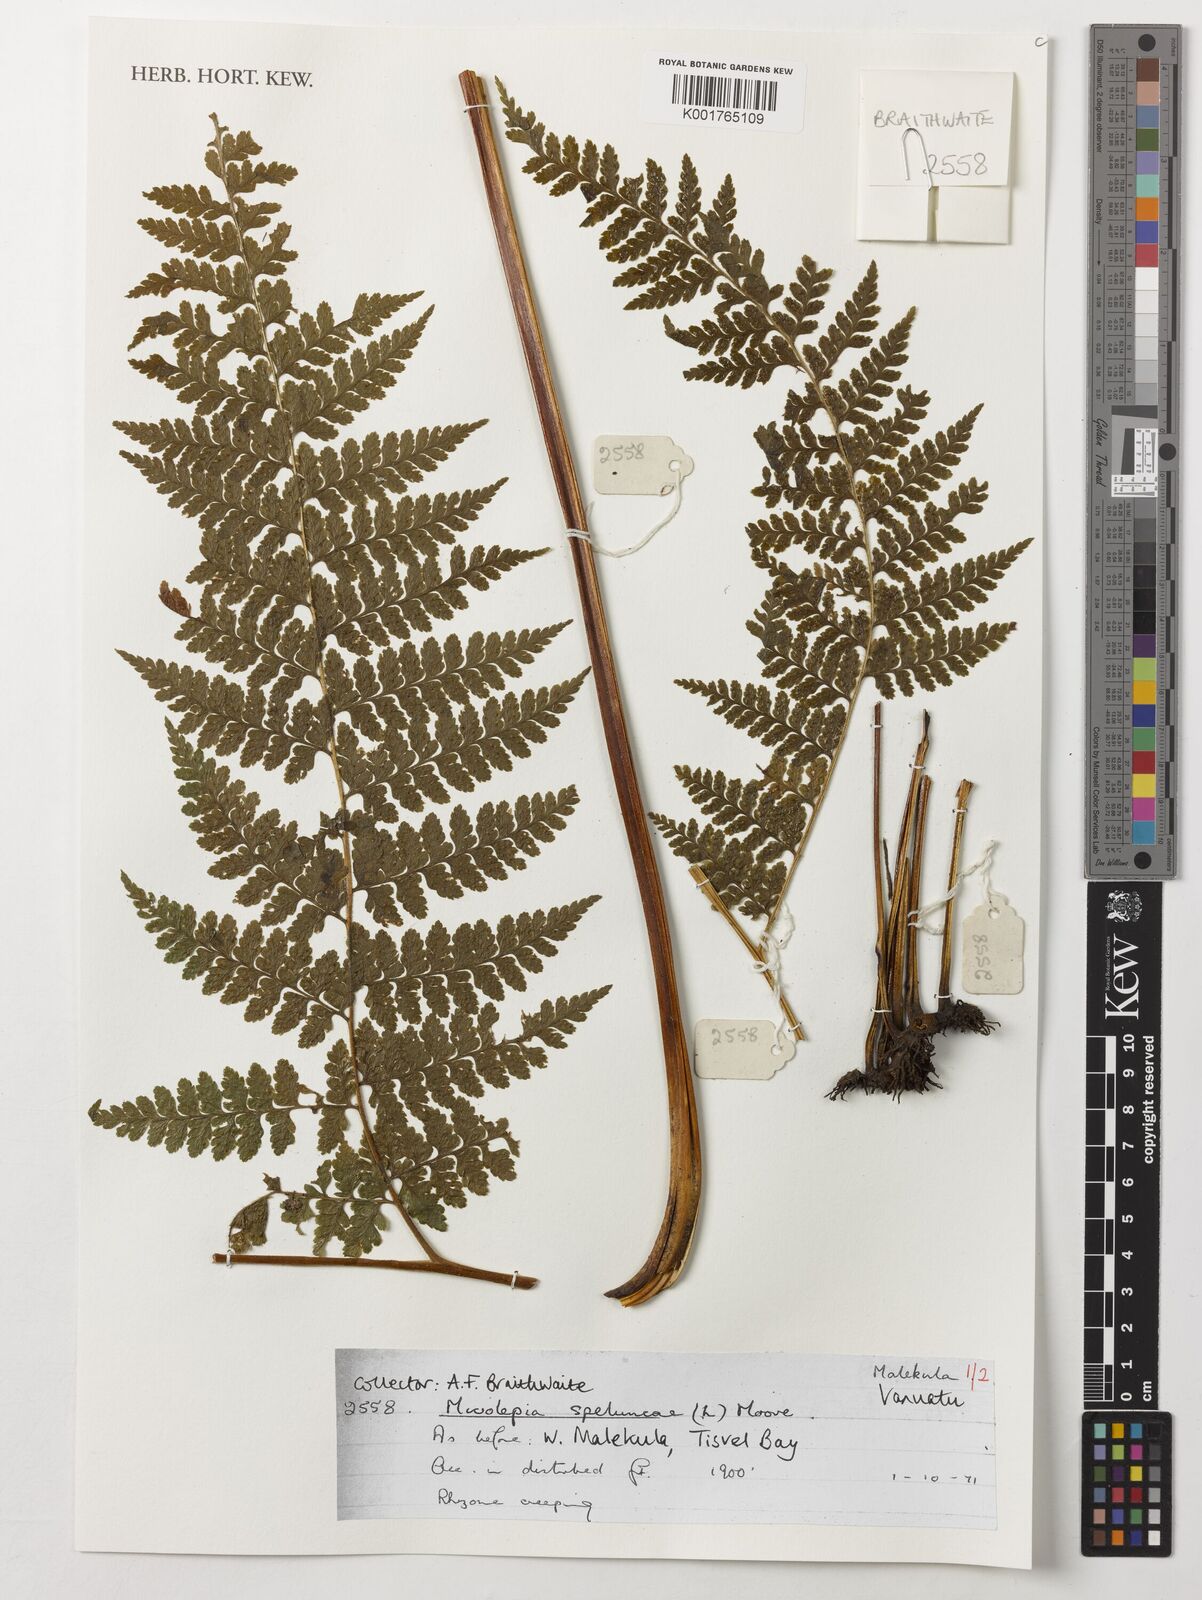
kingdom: Plantae
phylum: Tracheophyta
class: Polypodiopsida
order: Polypodiales
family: Dennstaedtiaceae
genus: Microlepia
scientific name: Microlepia speluncae
